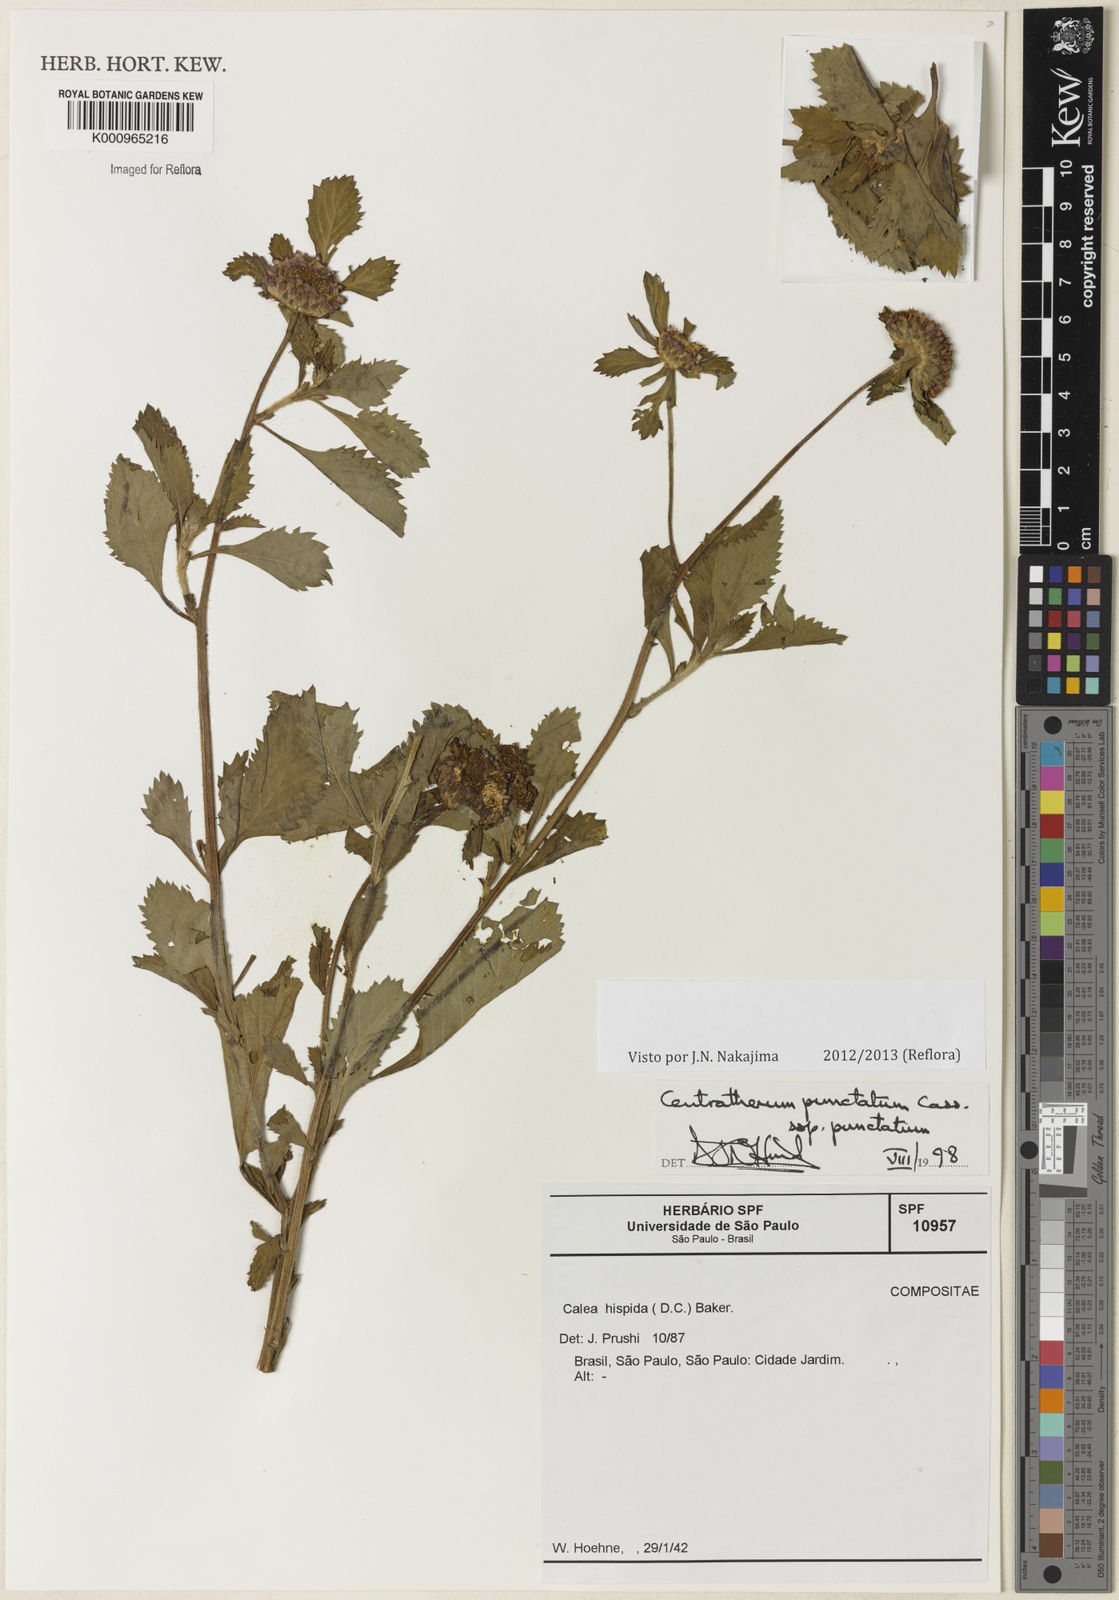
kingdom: Plantae
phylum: Tracheophyta
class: Magnoliopsida
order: Asterales
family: Asteraceae
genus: Centratherum
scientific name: Centratherum punctatum
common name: Larkdaisy
